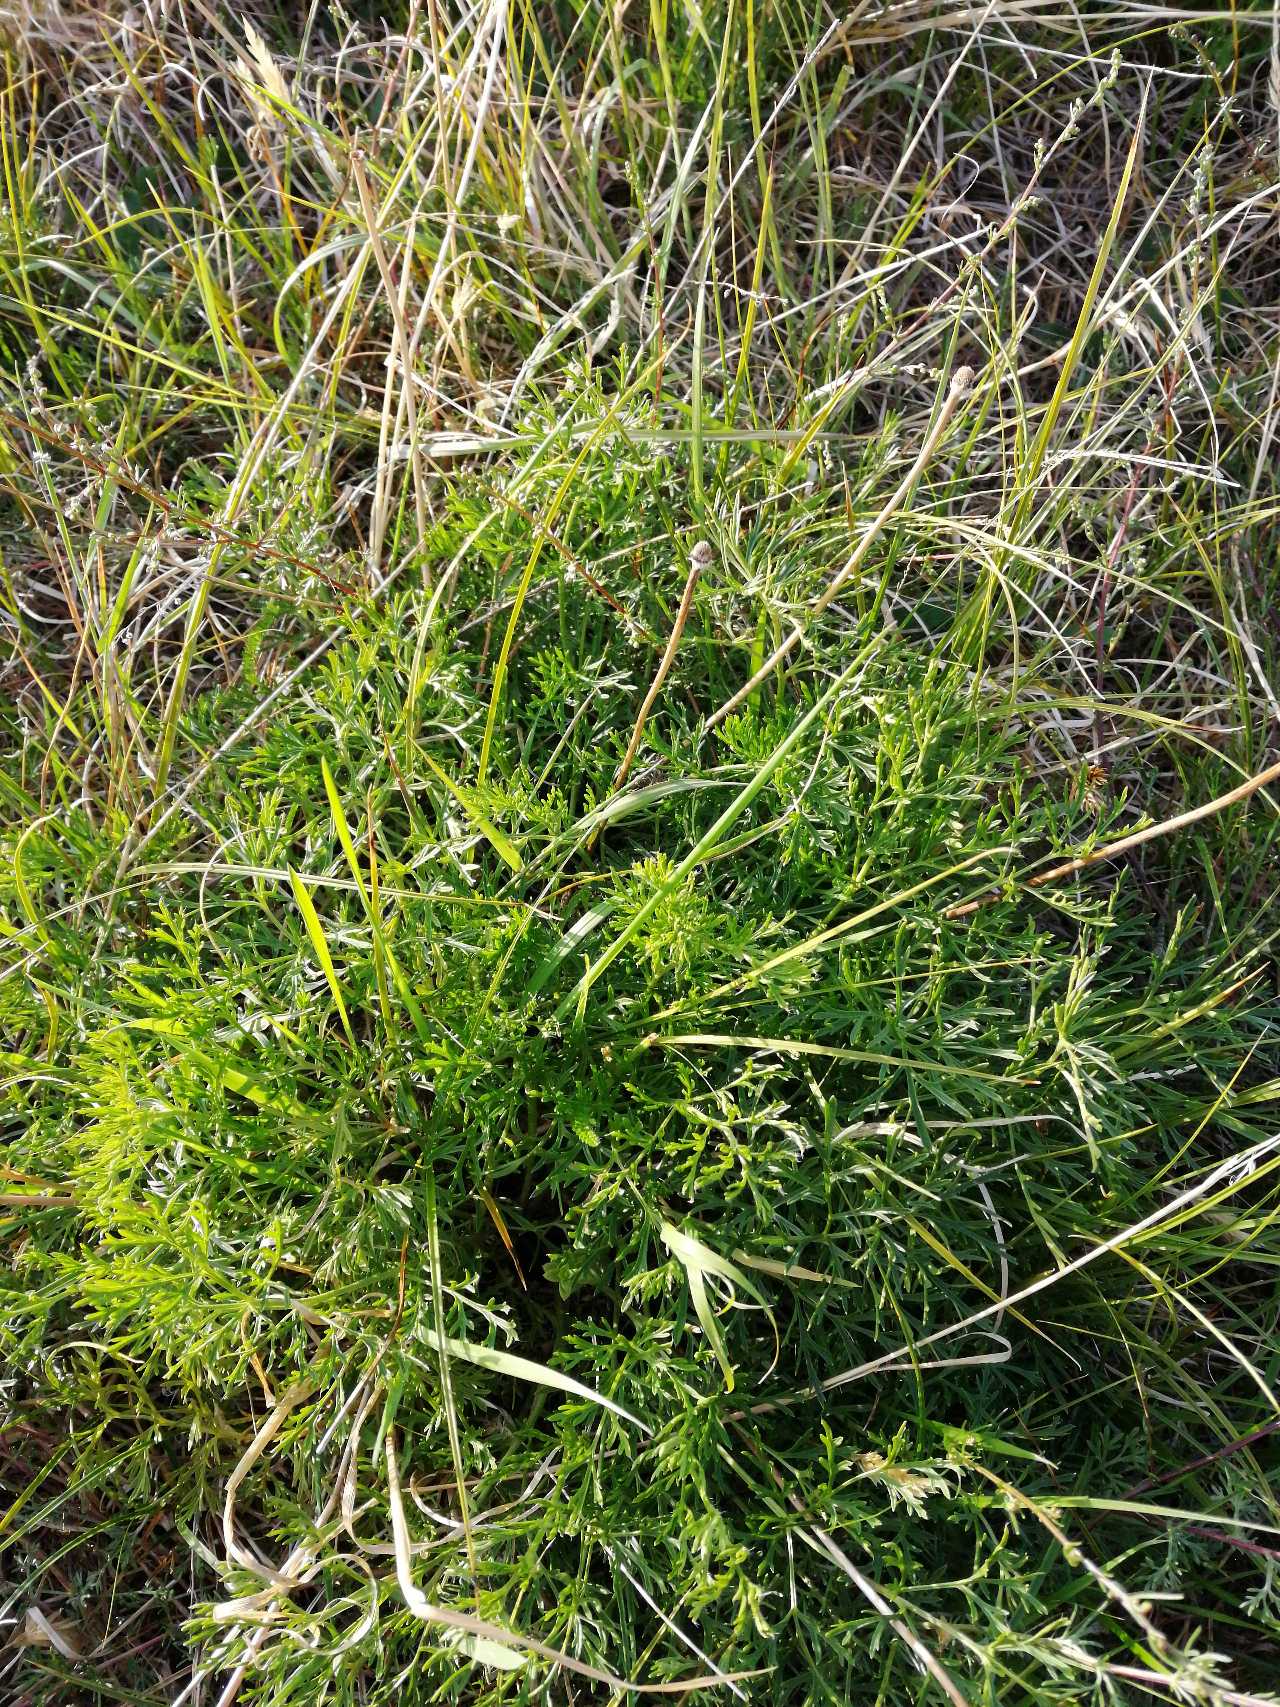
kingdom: Plantae
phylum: Tracheophyta
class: Magnoliopsida
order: Ranunculales
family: Ranunculaceae
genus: Pulsatilla
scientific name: Pulsatilla pratensis
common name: Nikkende kobjælde
